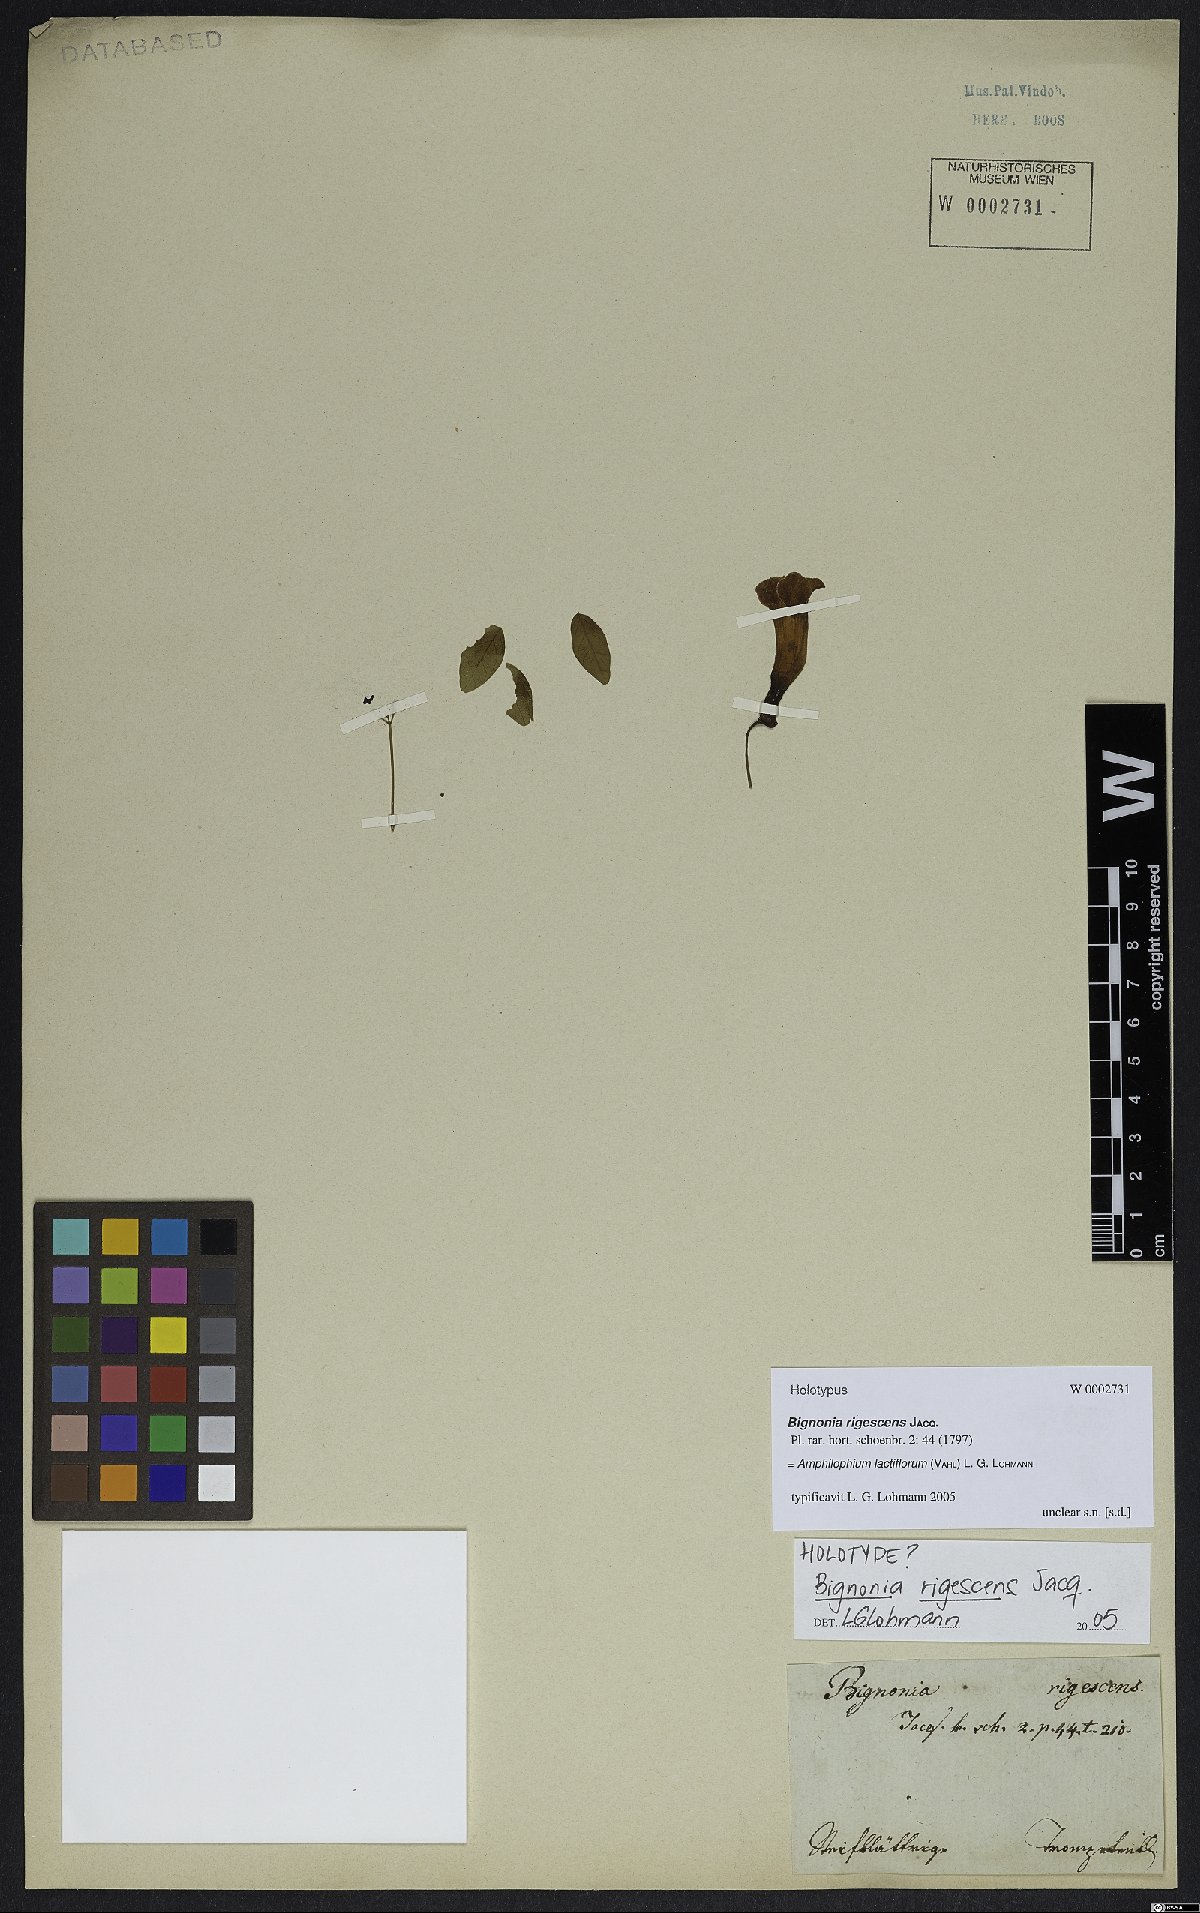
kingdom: Plantae
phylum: Tracheophyta
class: Magnoliopsida
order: Lamiales
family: Bignoniaceae
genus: Amphilophium
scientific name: Amphilophium lactiflorum
